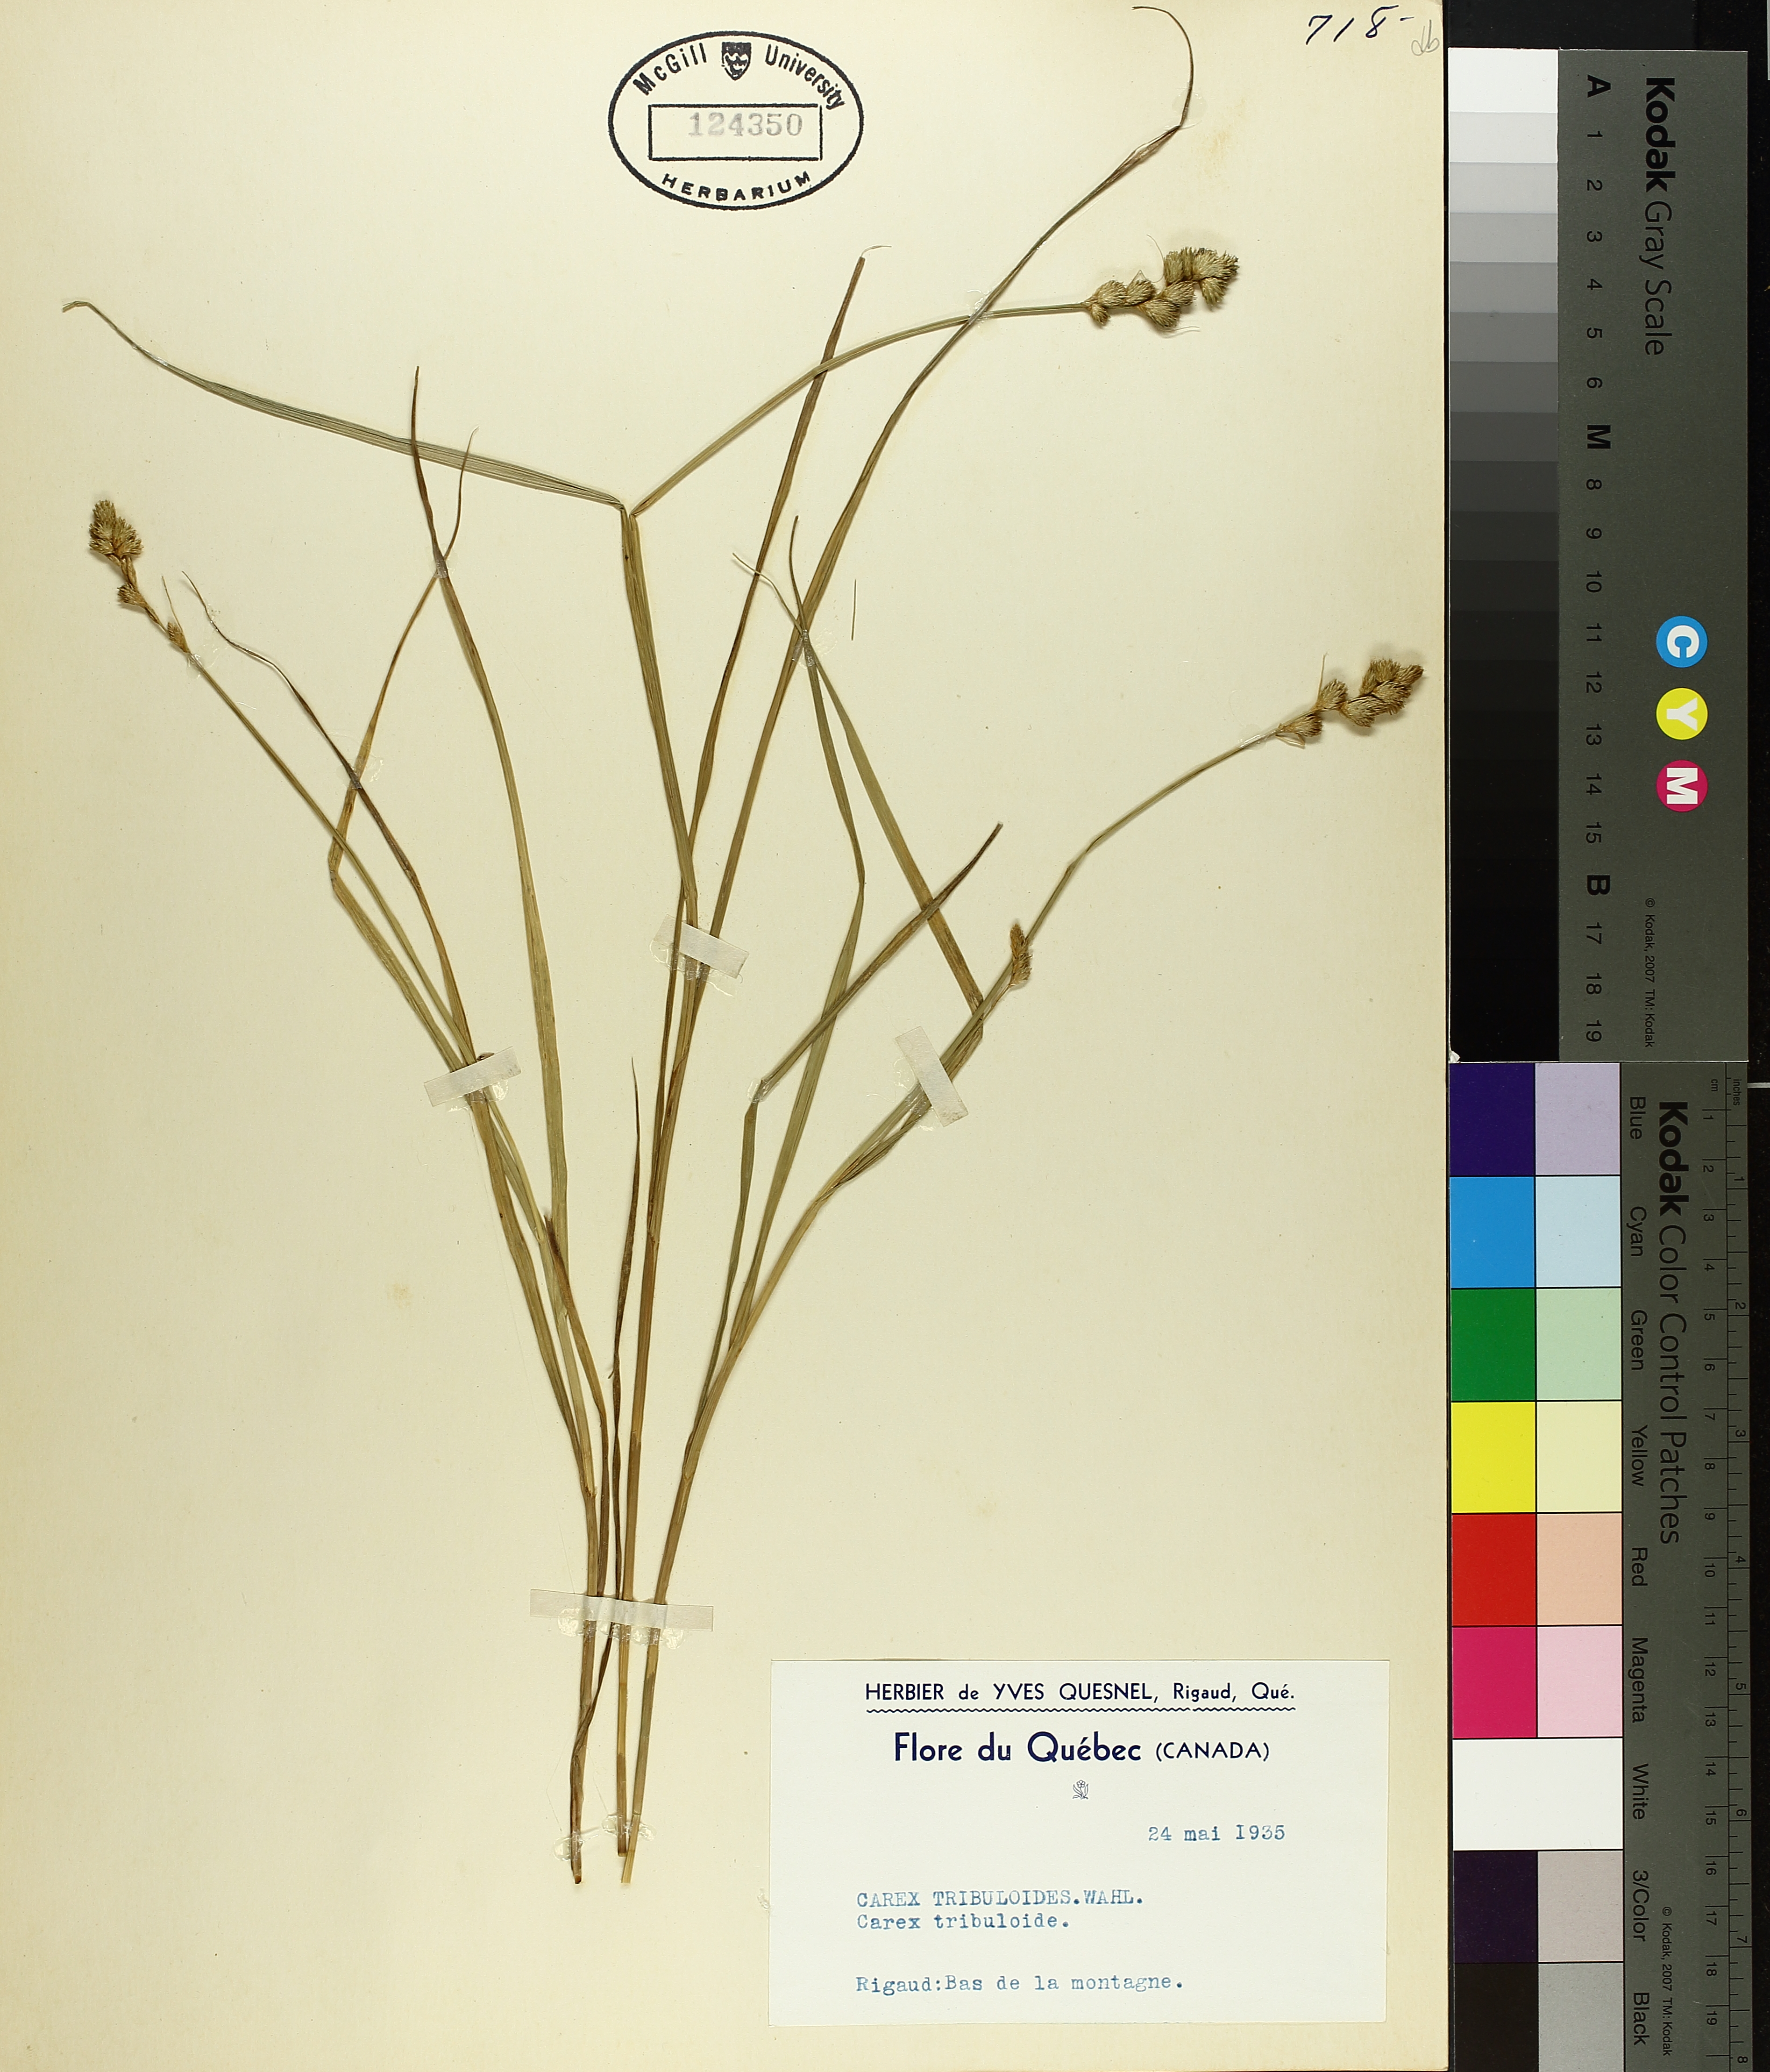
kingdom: Plantae
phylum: Tracheophyta
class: Liliopsida
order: Poales
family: Cyperaceae
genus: Carex
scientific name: Carex tribuloides
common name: Blunt broom sedge
